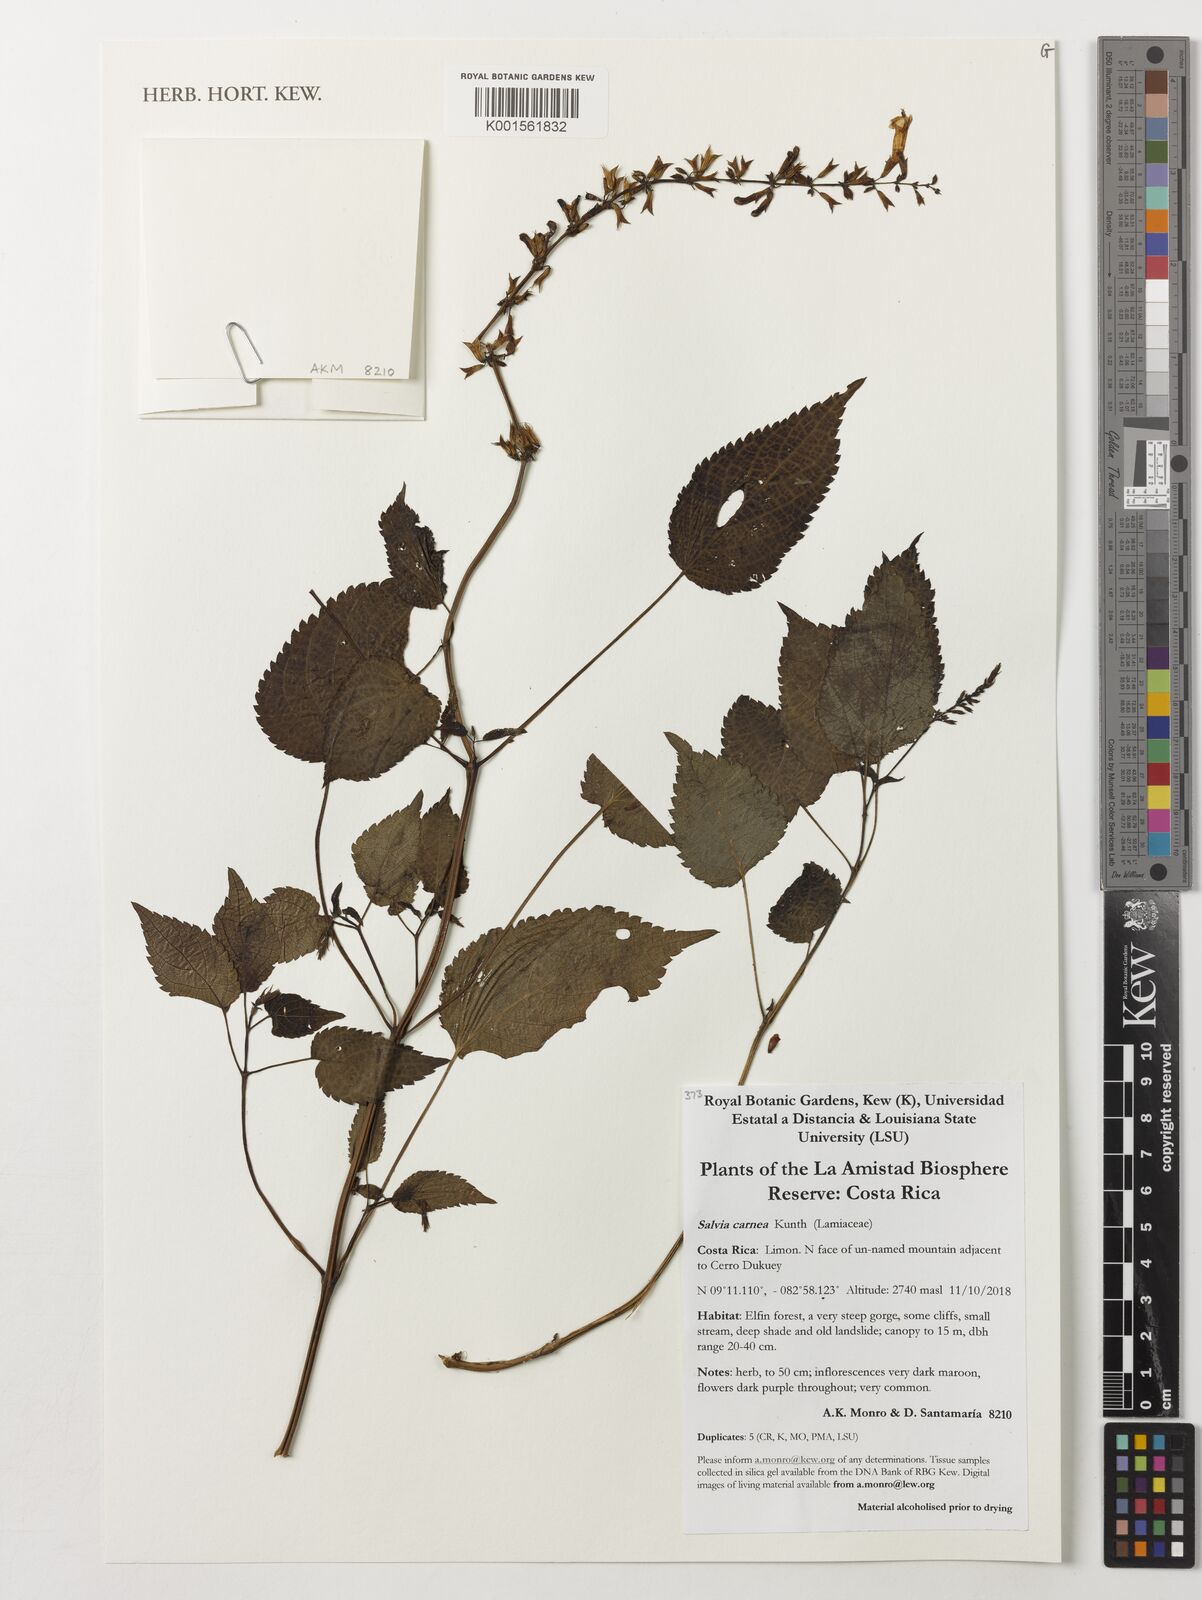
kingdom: Plantae
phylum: Tracheophyta
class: Magnoliopsida
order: Lamiales
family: Lamiaceae
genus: Salvia
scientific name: Salvia carnea
